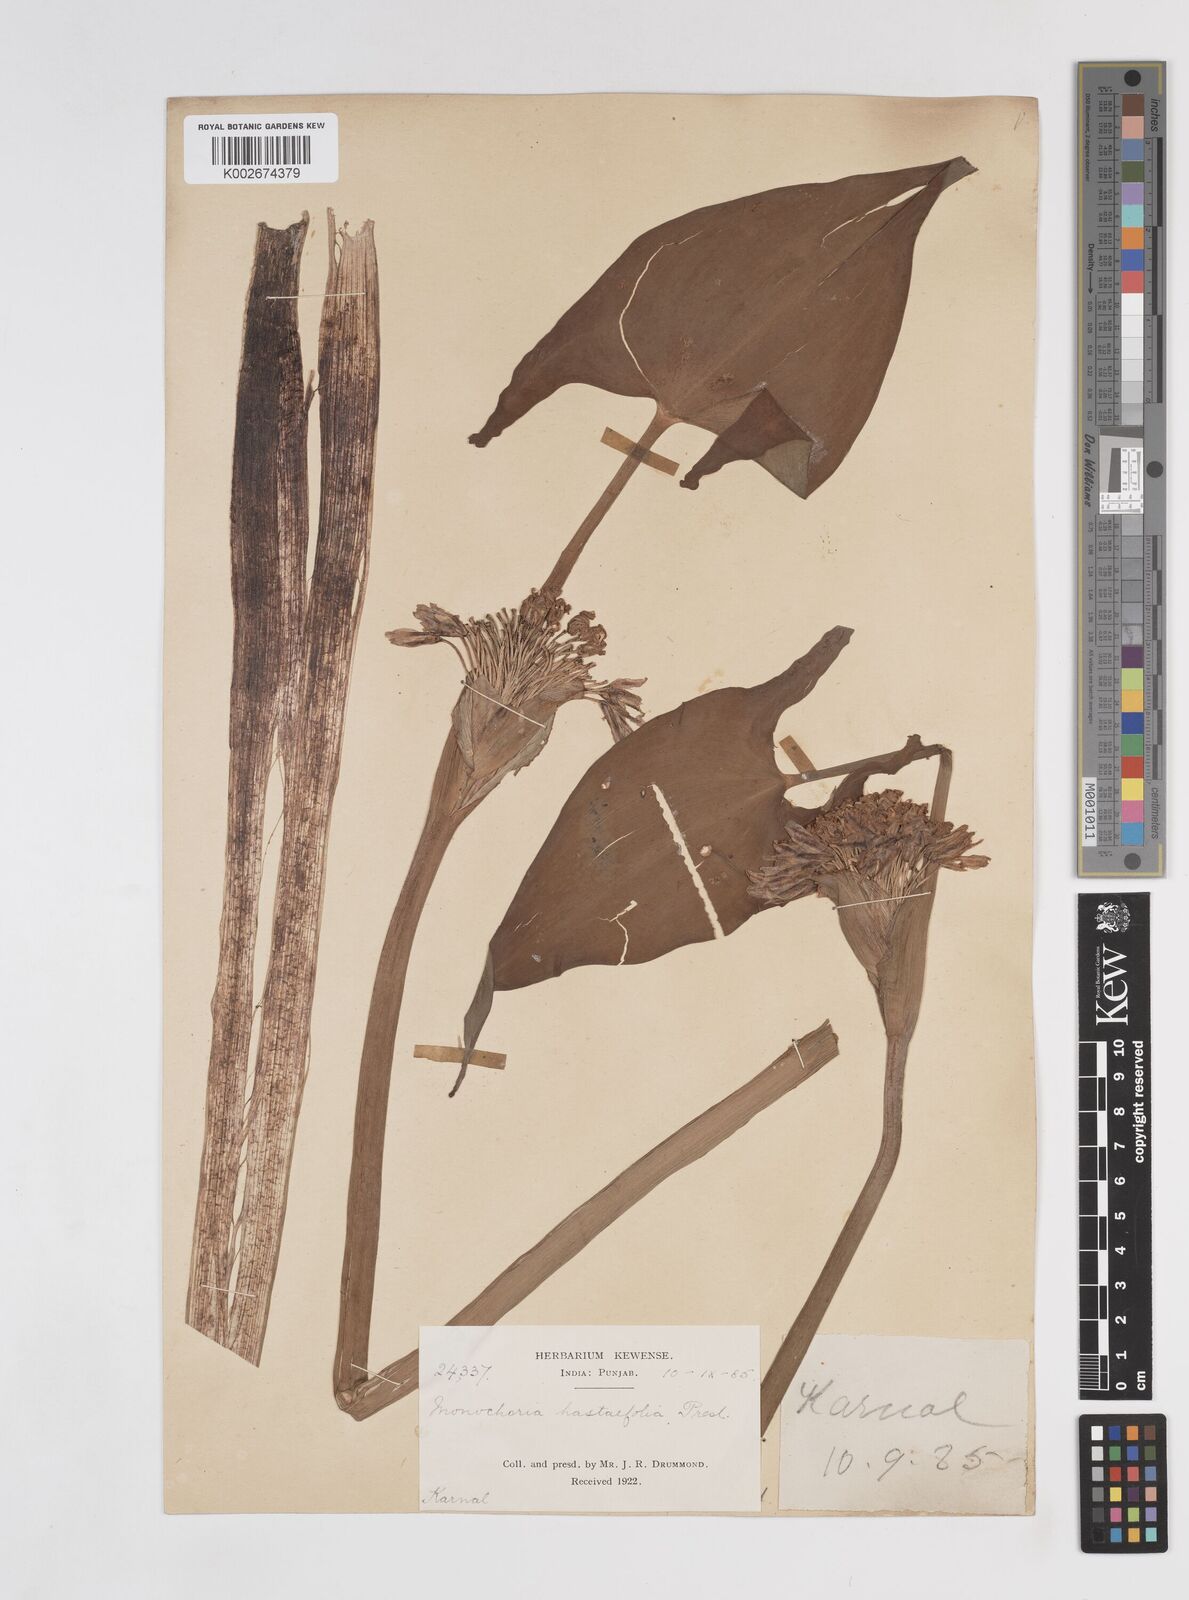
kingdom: Plantae
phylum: Tracheophyta
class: Liliopsida
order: Commelinales
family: Pontederiaceae
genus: Pontederia
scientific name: Pontederia hastata
